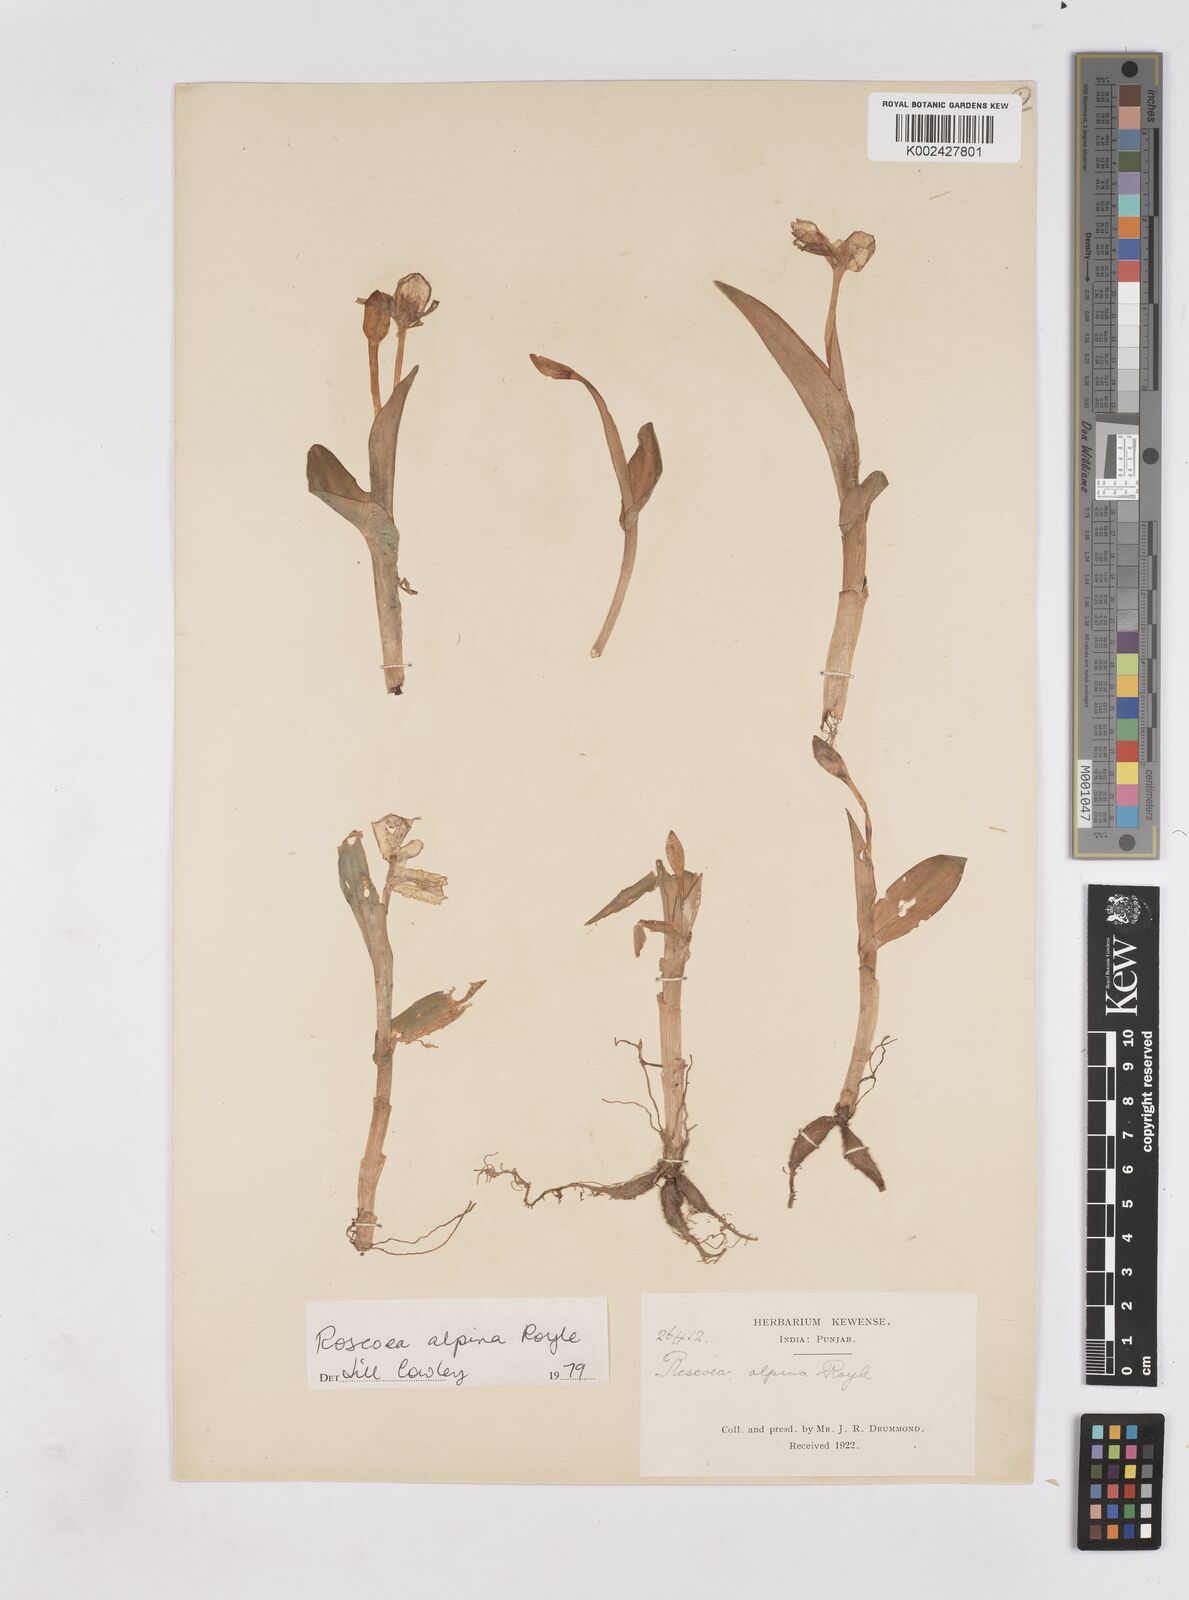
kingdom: Plantae
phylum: Tracheophyta
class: Liliopsida
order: Zingiberales
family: Zingiberaceae
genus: Roscoea
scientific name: Roscoea alpina
